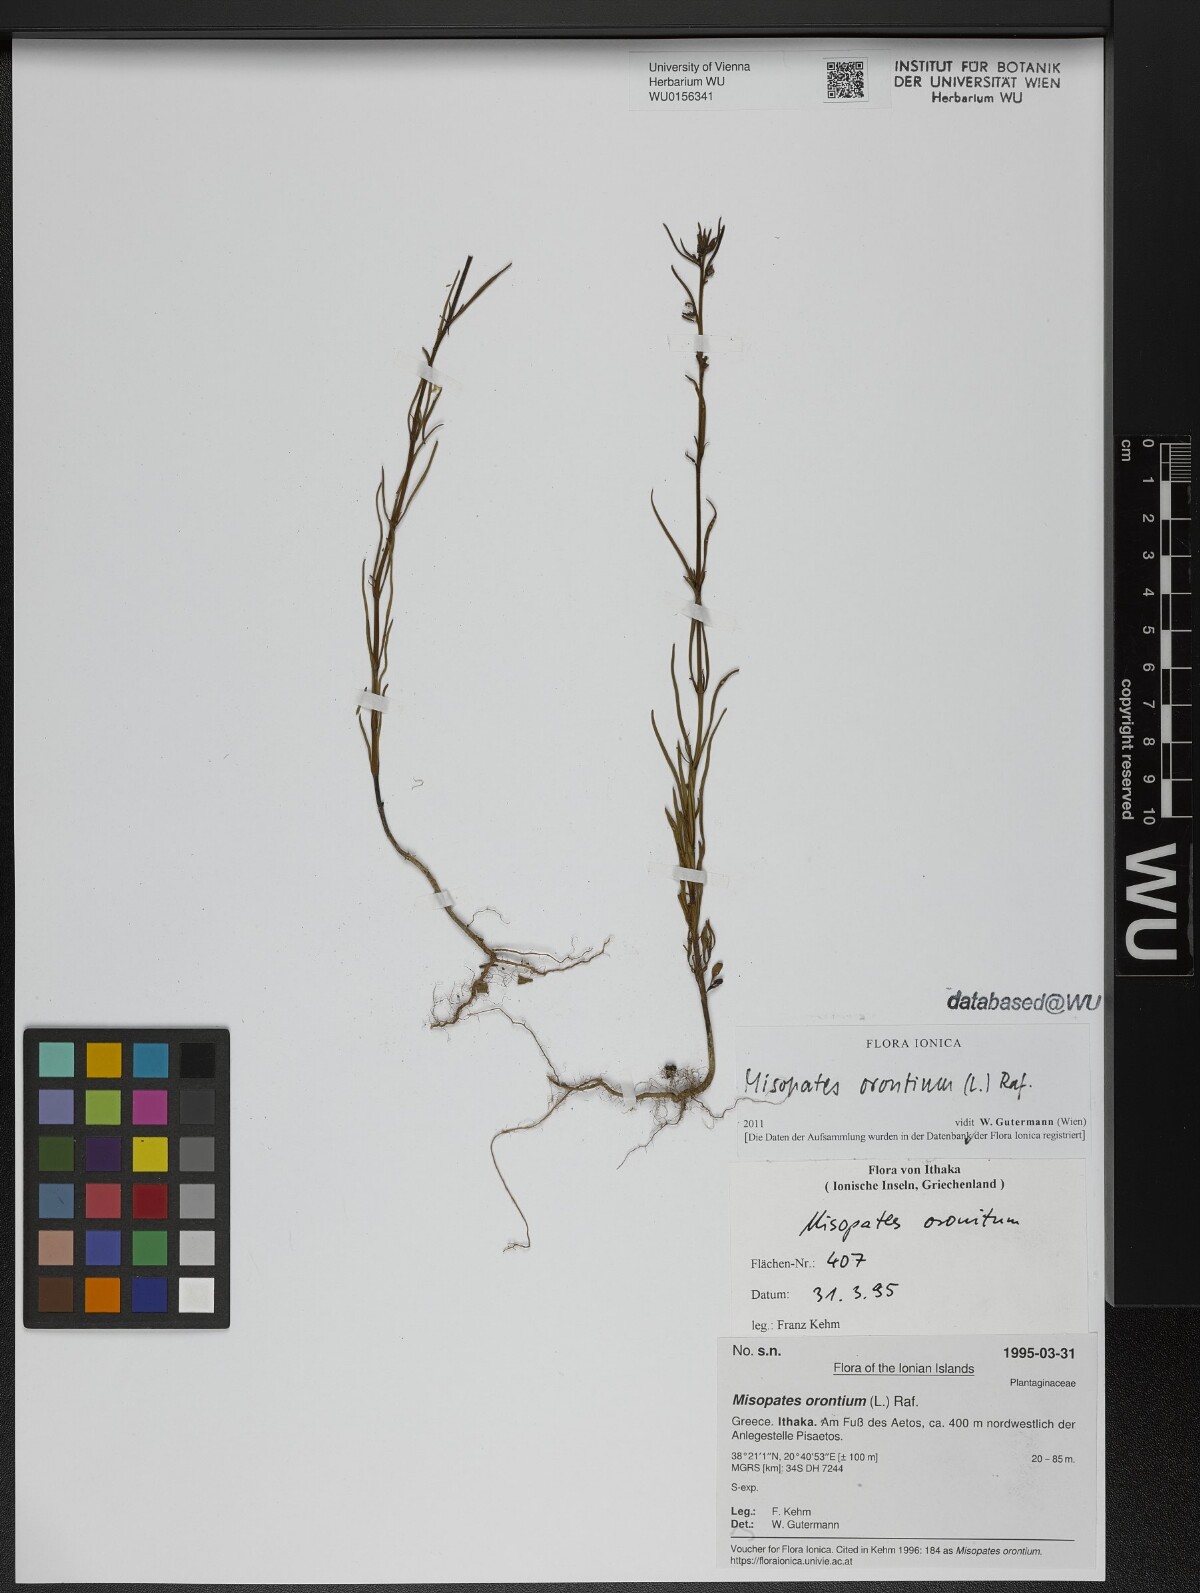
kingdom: Plantae
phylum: Tracheophyta
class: Magnoliopsida
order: Lamiales
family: Plantaginaceae
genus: Misopates
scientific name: Misopates orontium
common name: Weasel's-snout
